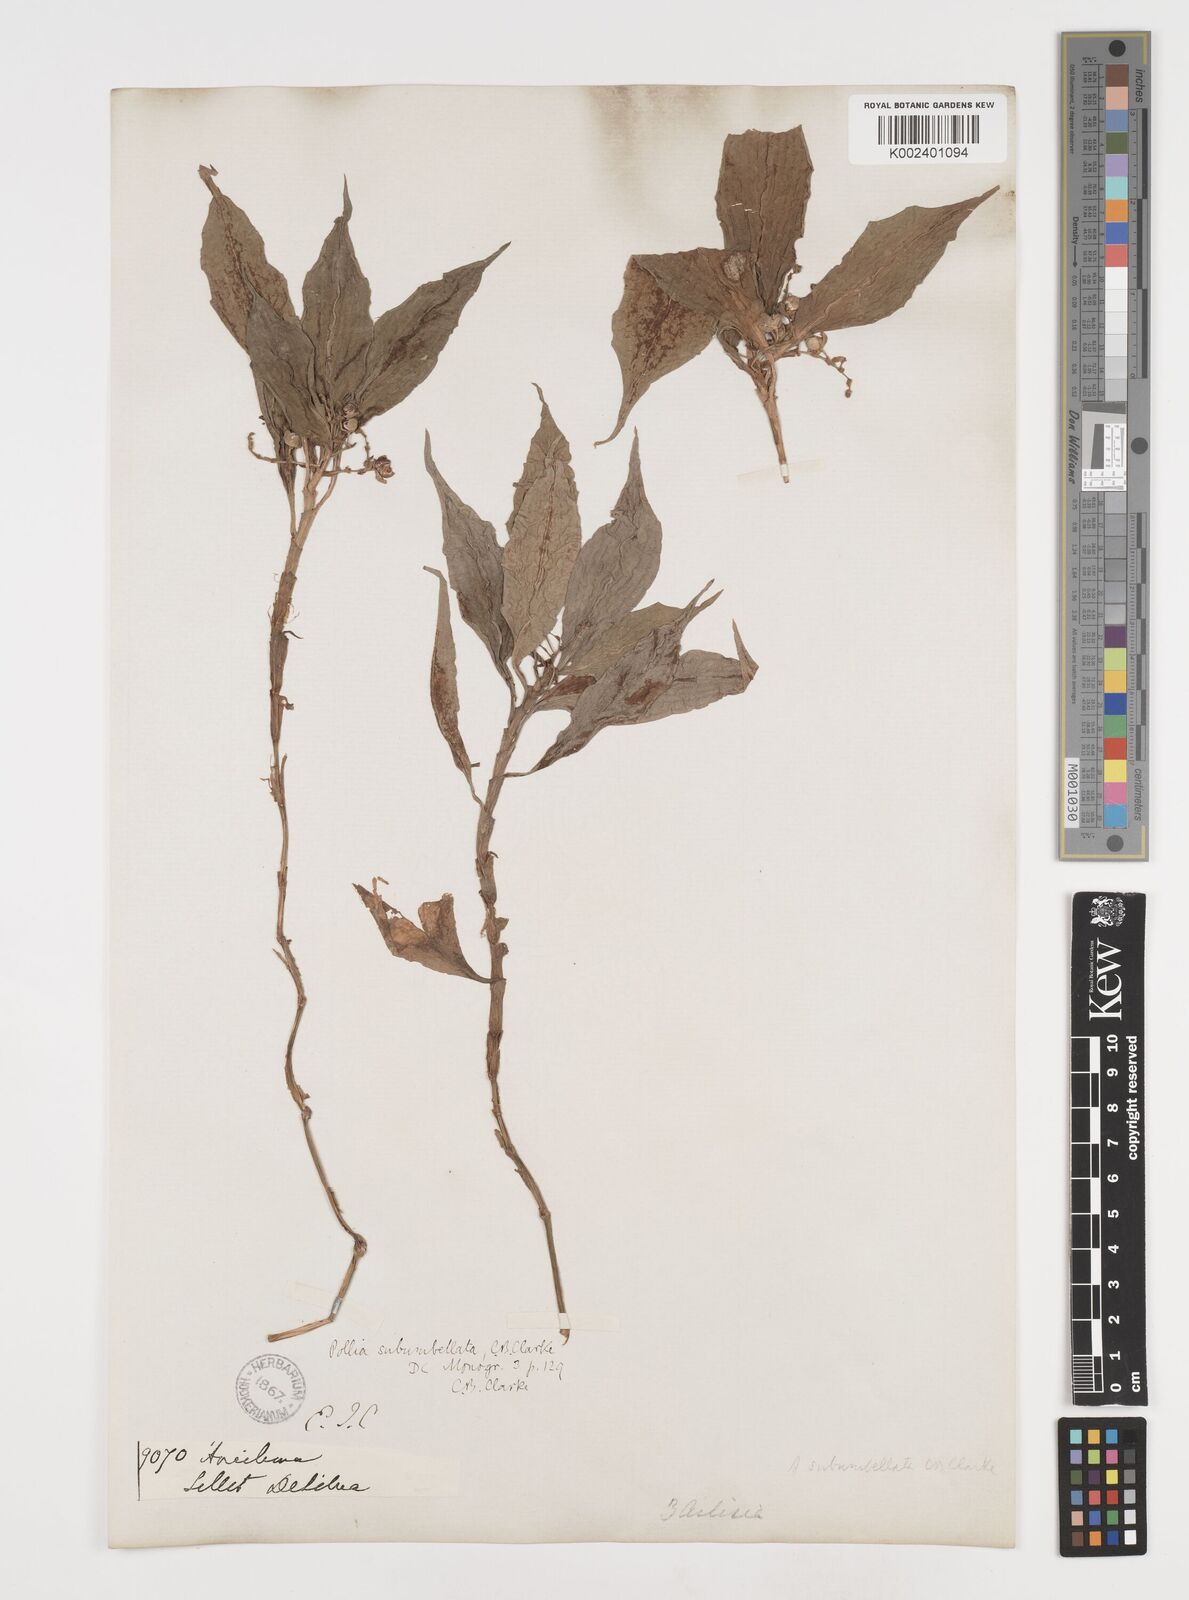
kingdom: Plantae
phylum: Tracheophyta
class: Liliopsida
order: Commelinales
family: Commelinaceae
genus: Pollia
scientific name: Pollia subumbellata
